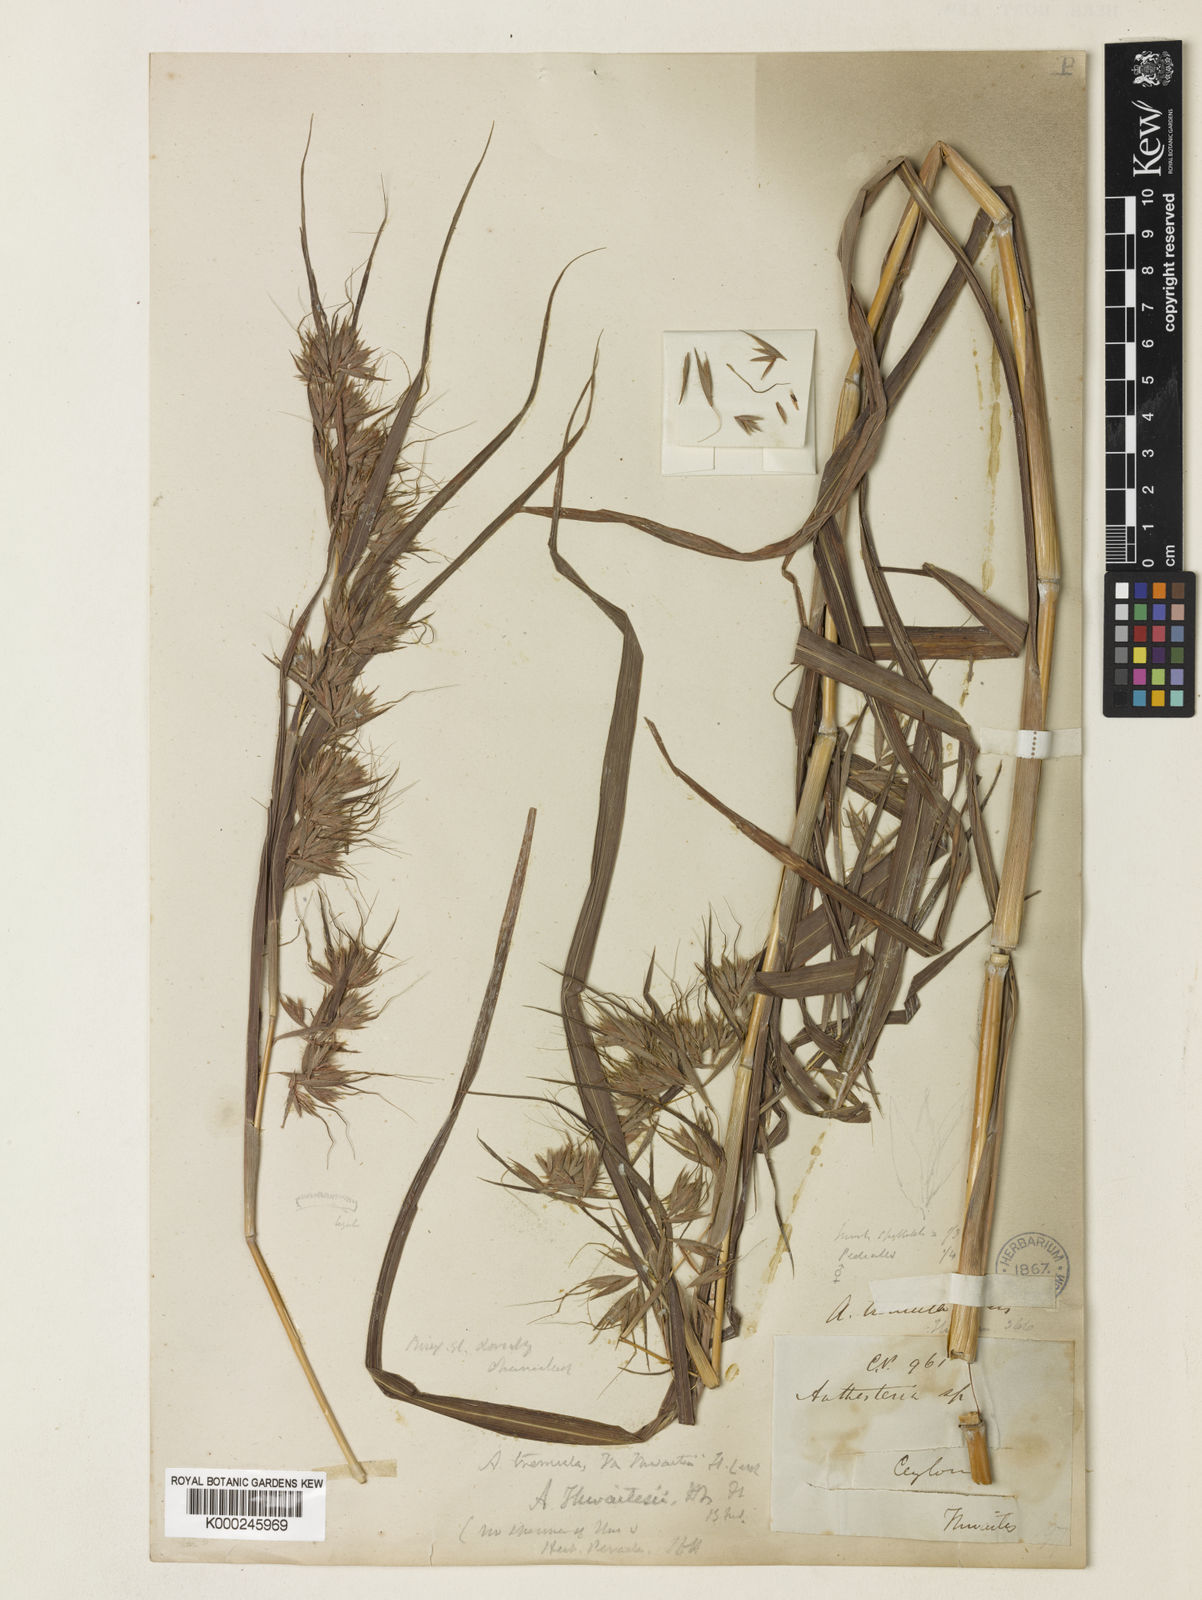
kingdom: Plantae
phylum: Tracheophyta
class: Liliopsida
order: Poales
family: Poaceae
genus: Themeda
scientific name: Themeda tremula
